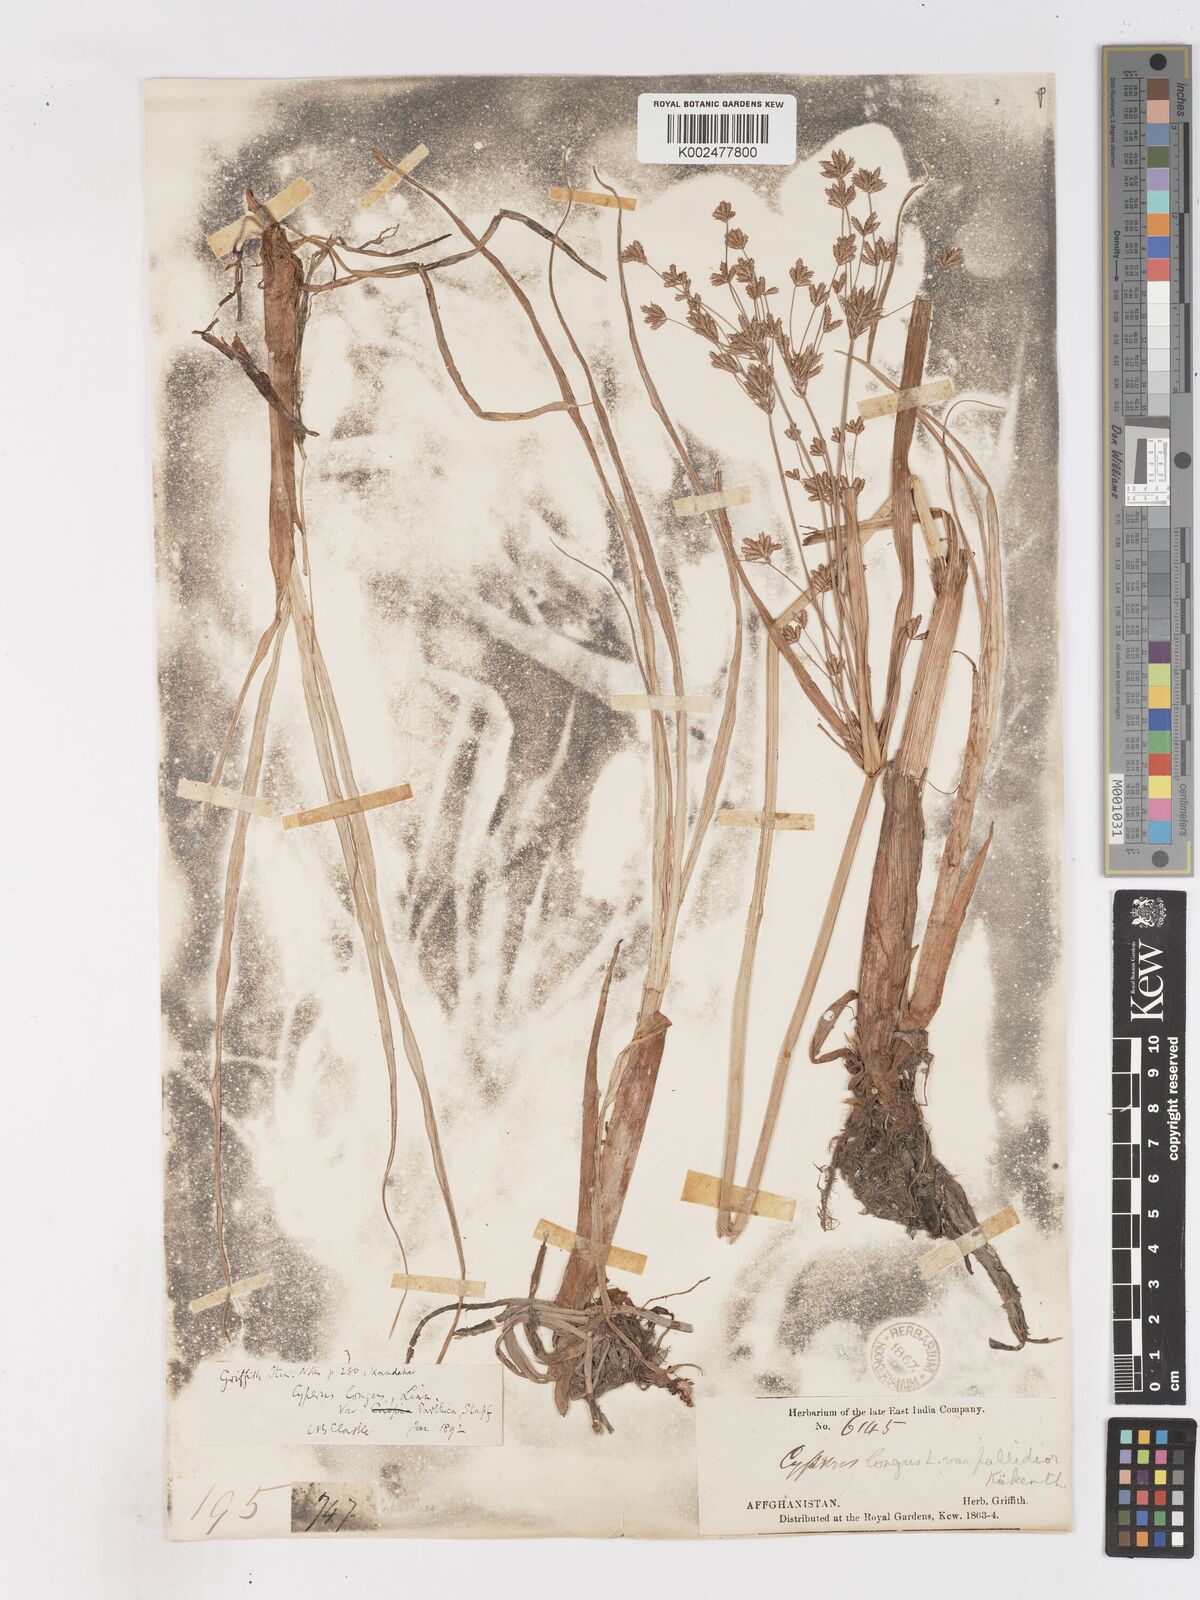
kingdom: Plantae
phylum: Tracheophyta
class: Liliopsida
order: Poales
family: Cyperaceae
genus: Cyperus
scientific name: Cyperus longus
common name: Galingale
